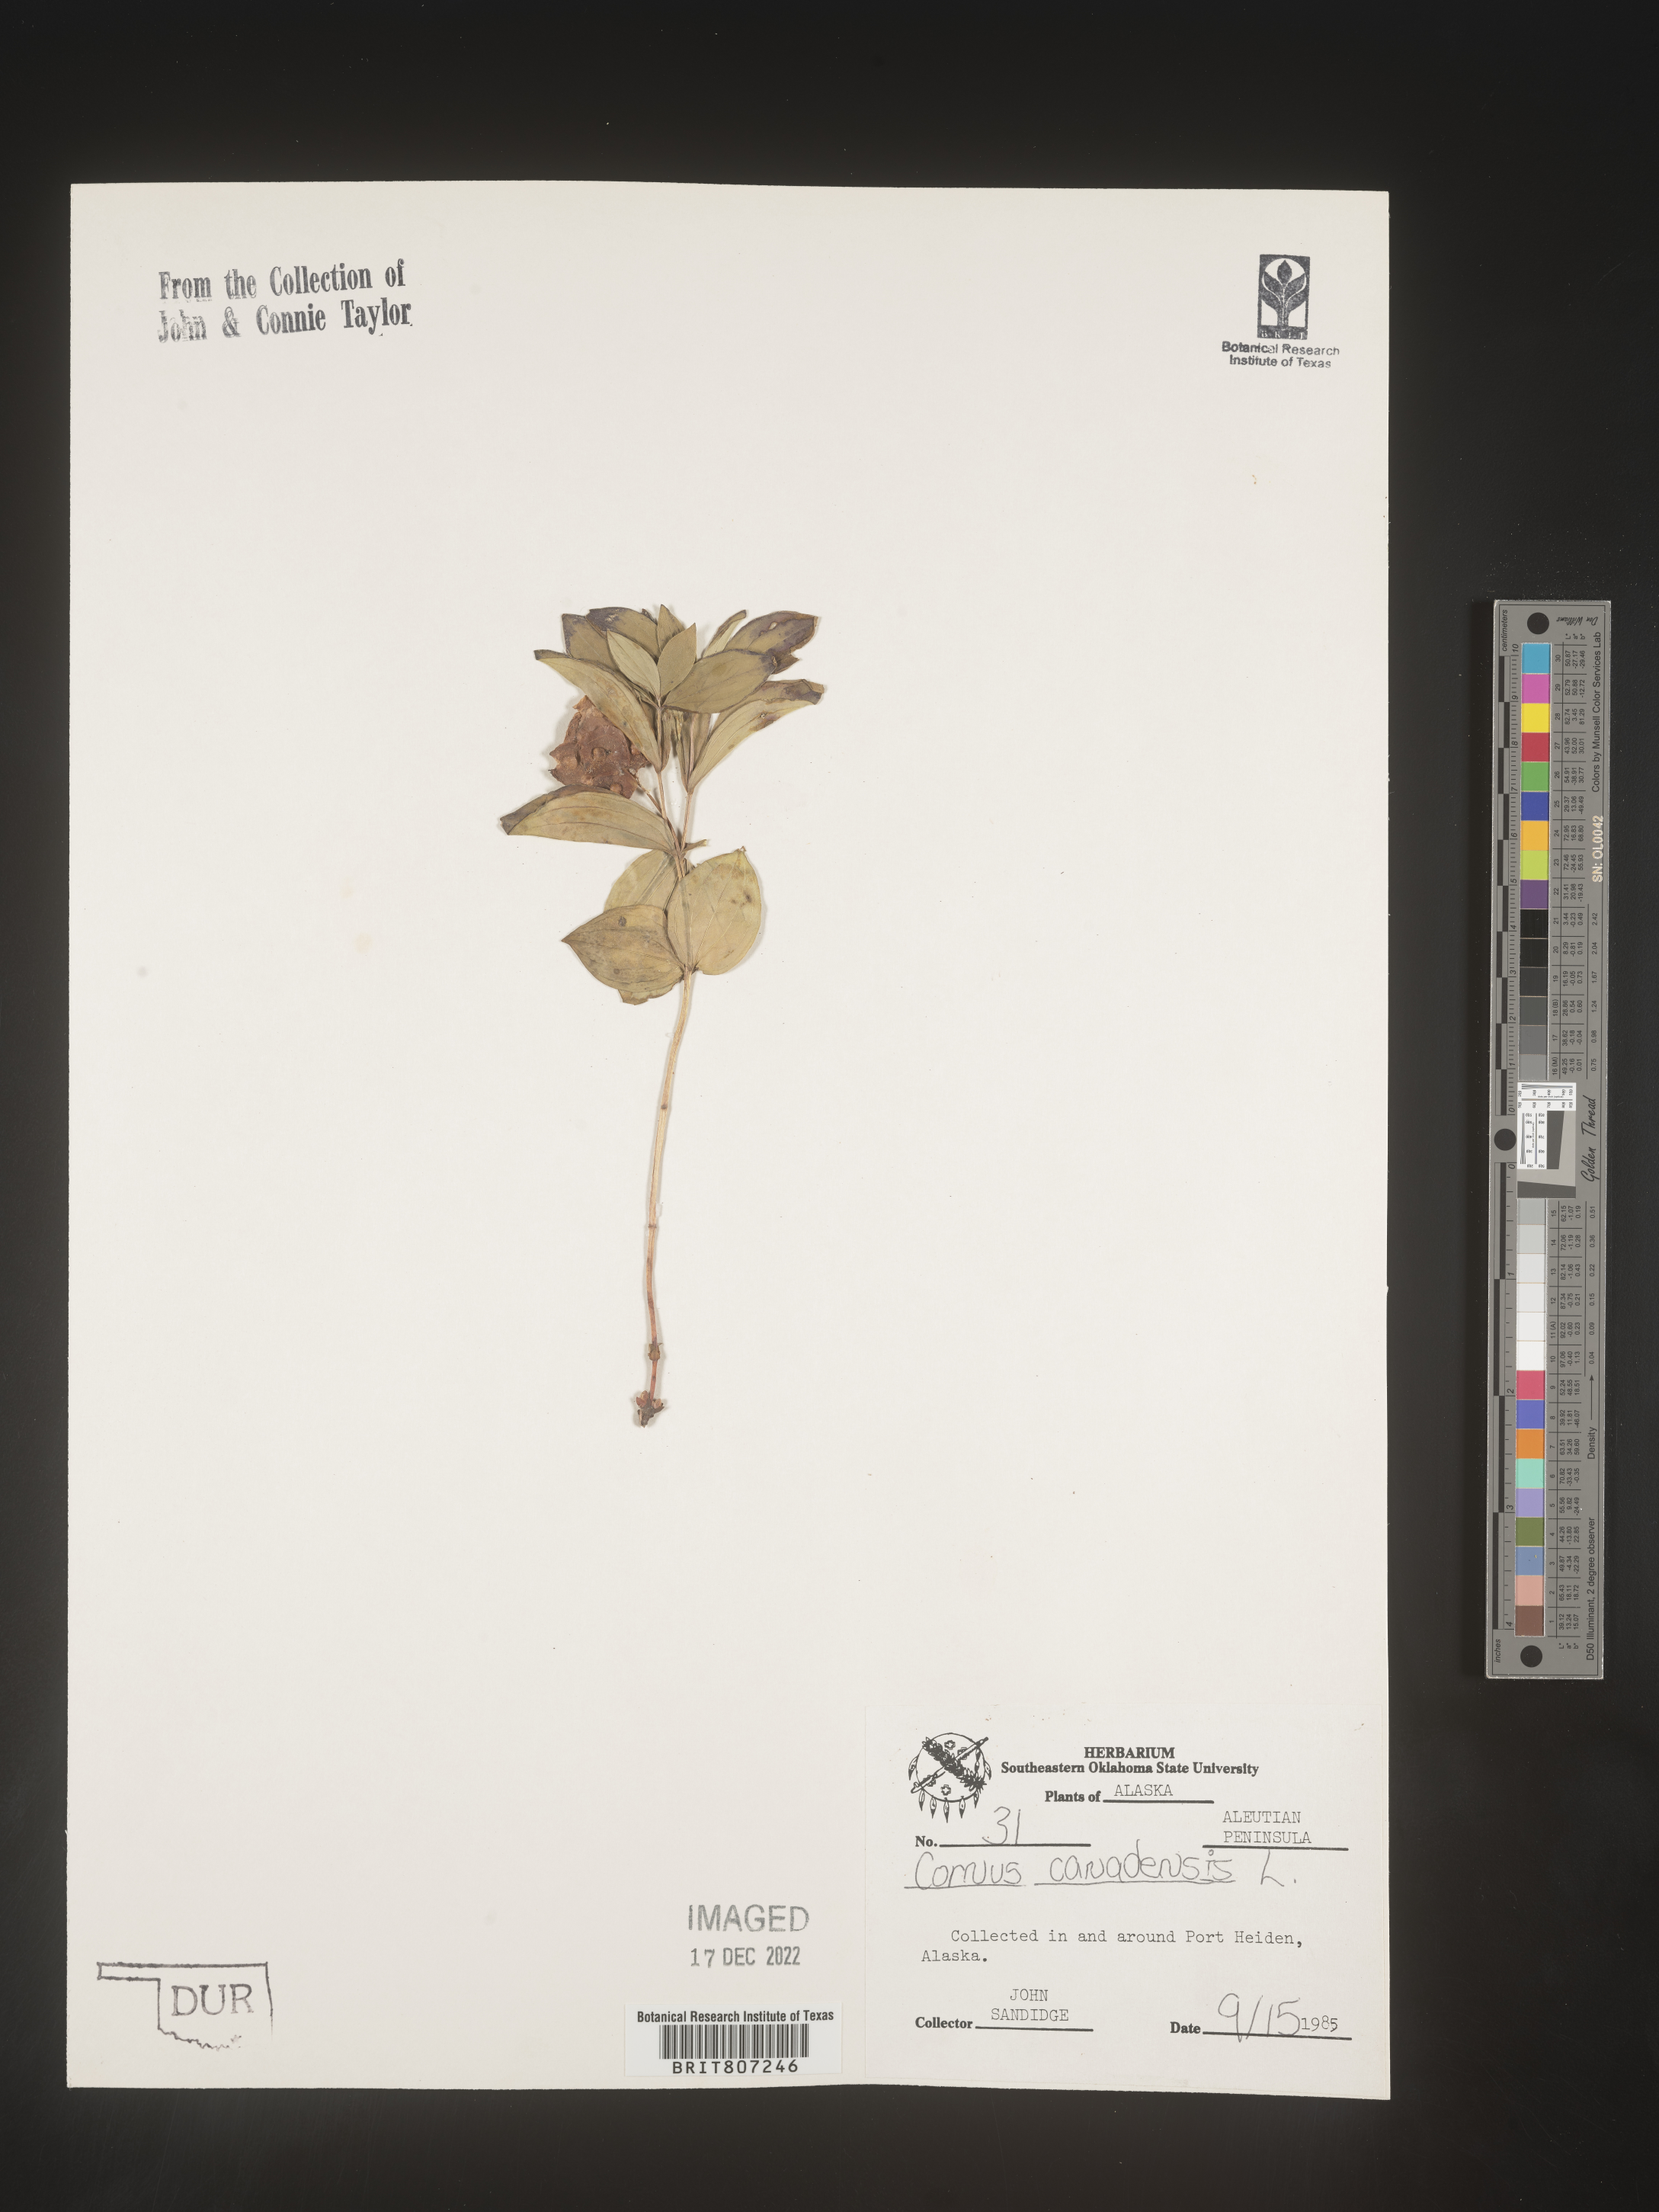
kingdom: Plantae
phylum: Tracheophyta
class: Magnoliopsida
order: Cornales
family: Cornaceae
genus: Cornus
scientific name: Cornus canadensis
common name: Creeping dogwood
